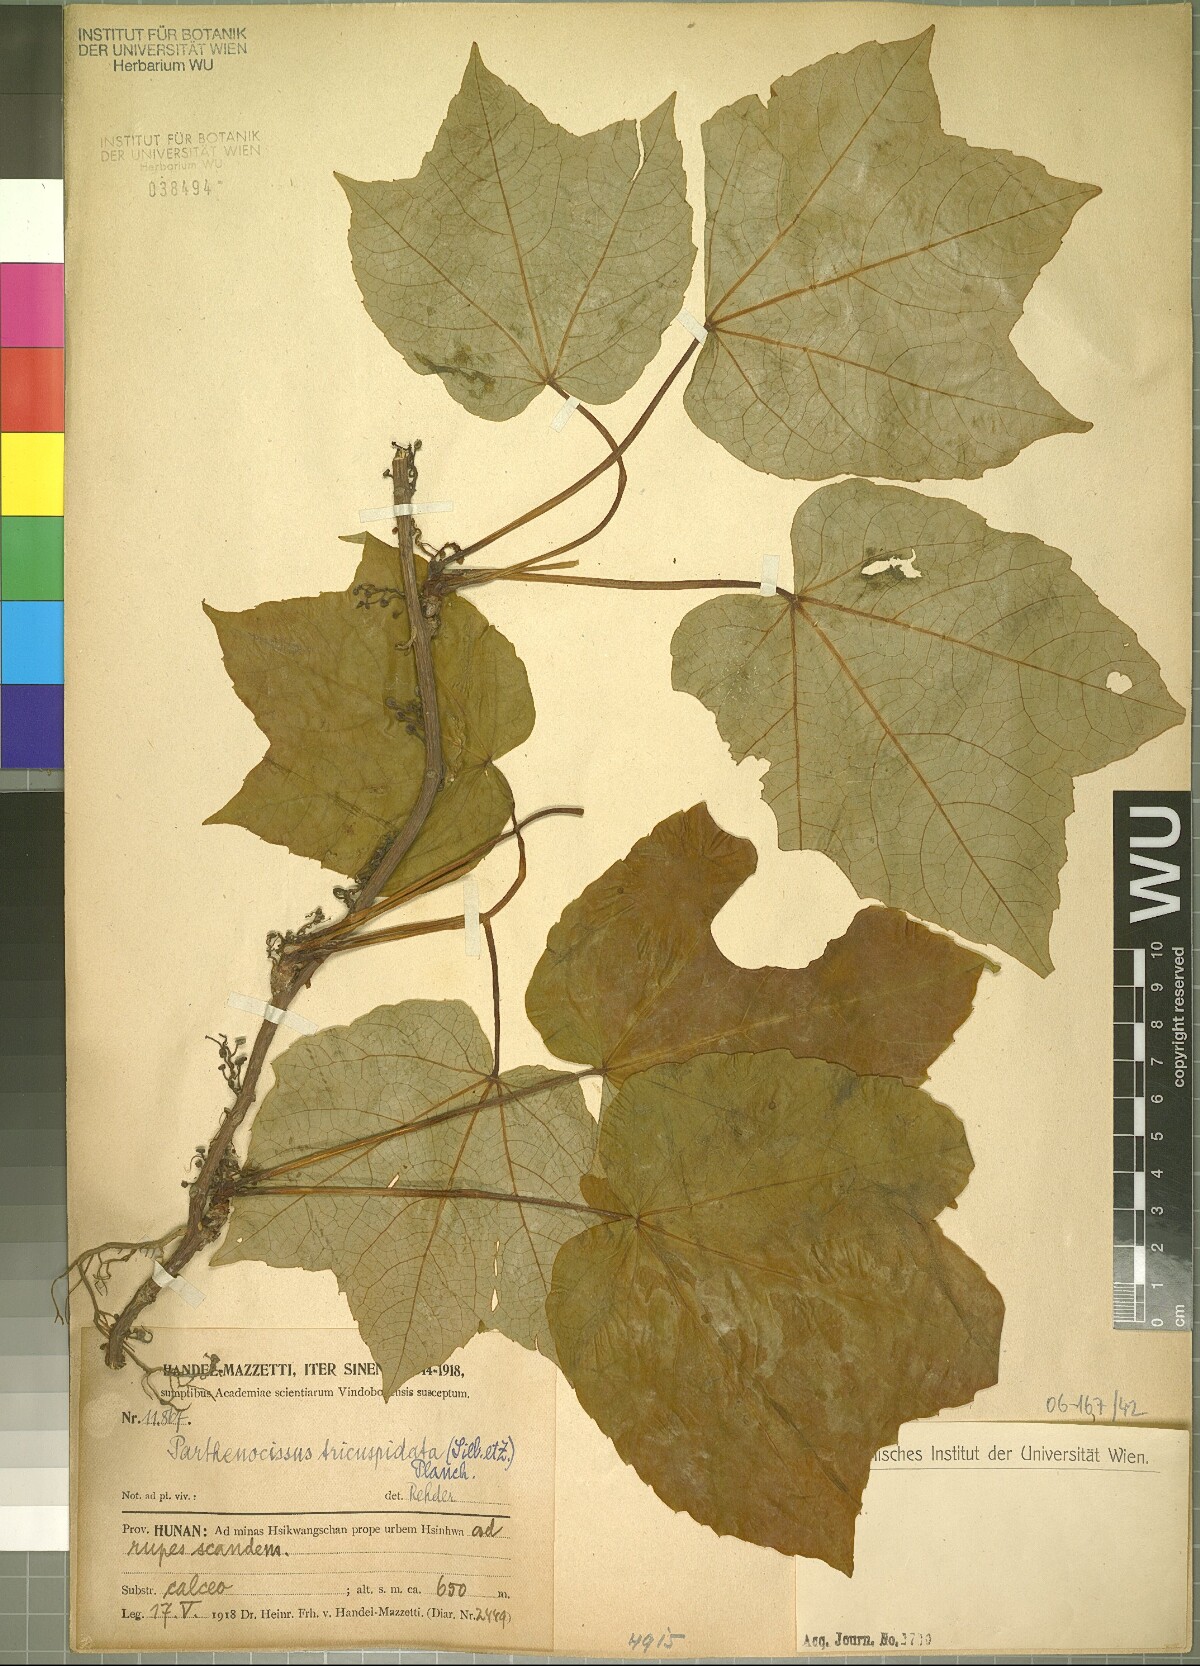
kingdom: Plantae
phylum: Tracheophyta
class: Magnoliopsida
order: Vitales
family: Vitaceae
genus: Parthenocissus
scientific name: Parthenocissus tricuspidata
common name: Boston ivy
